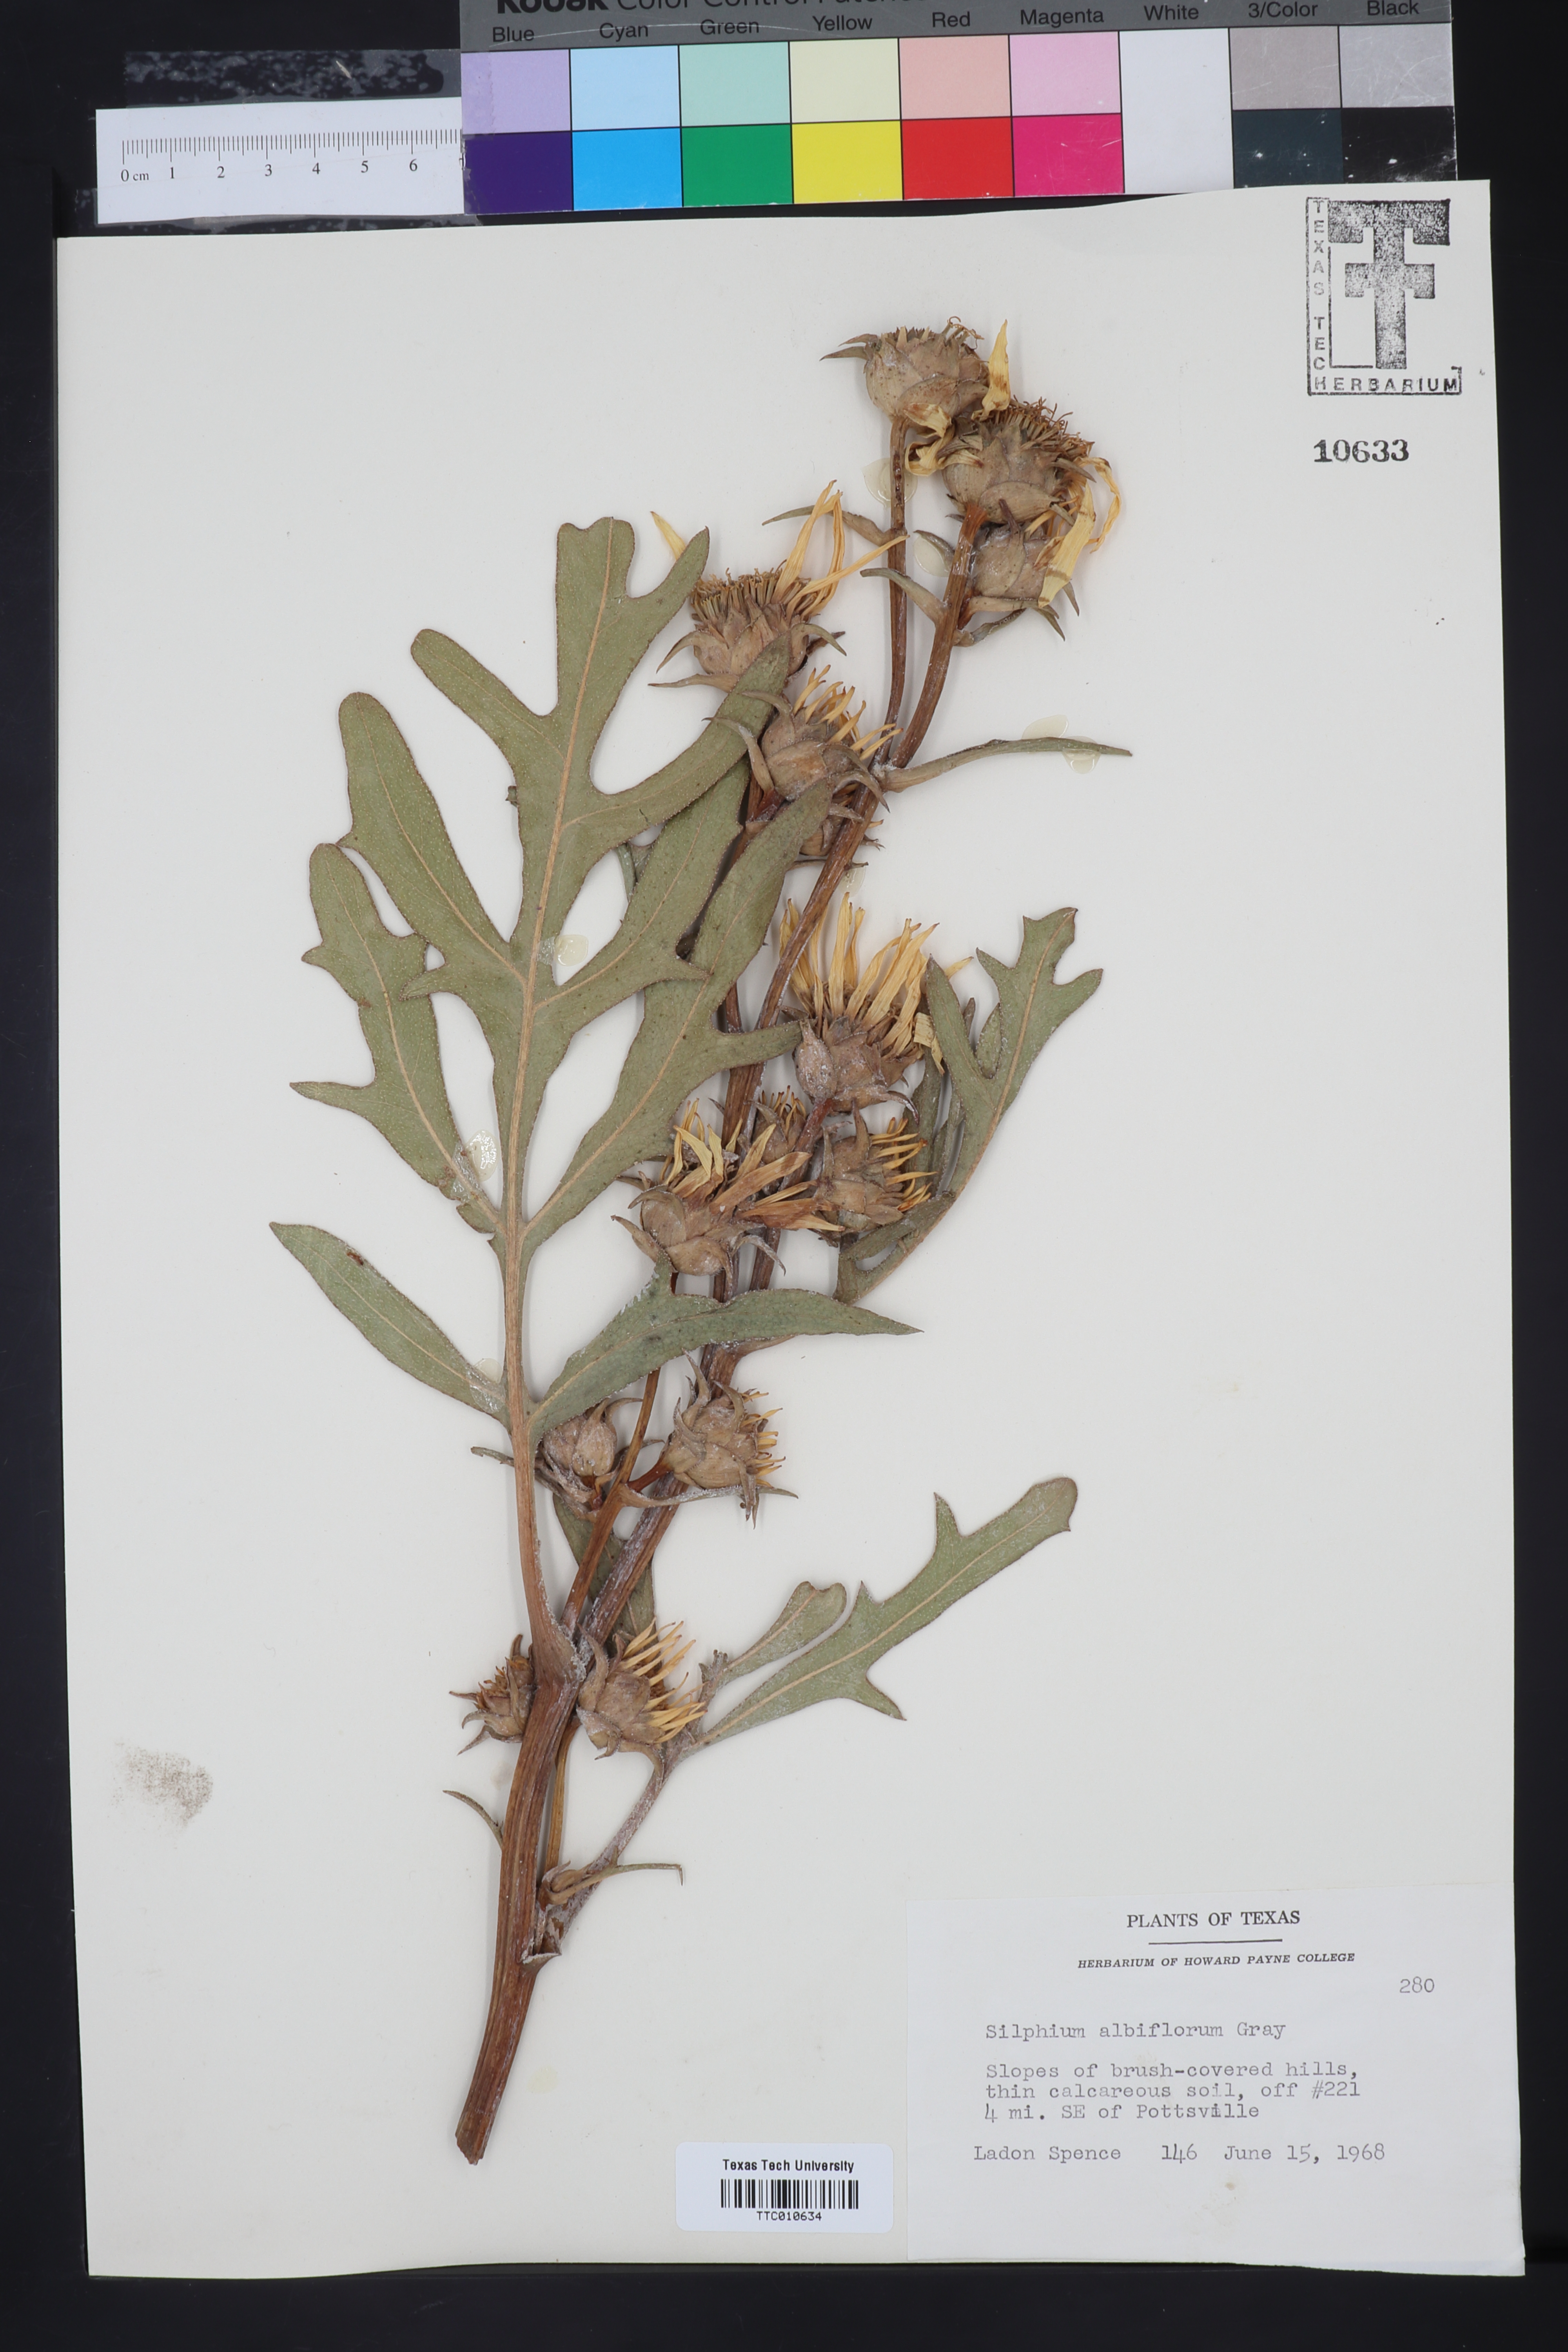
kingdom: Plantae
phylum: Tracheophyta
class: Magnoliopsida
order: Asterales
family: Asteraceae
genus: Silphium
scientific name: Silphium albiflorum
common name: White rosinweed
